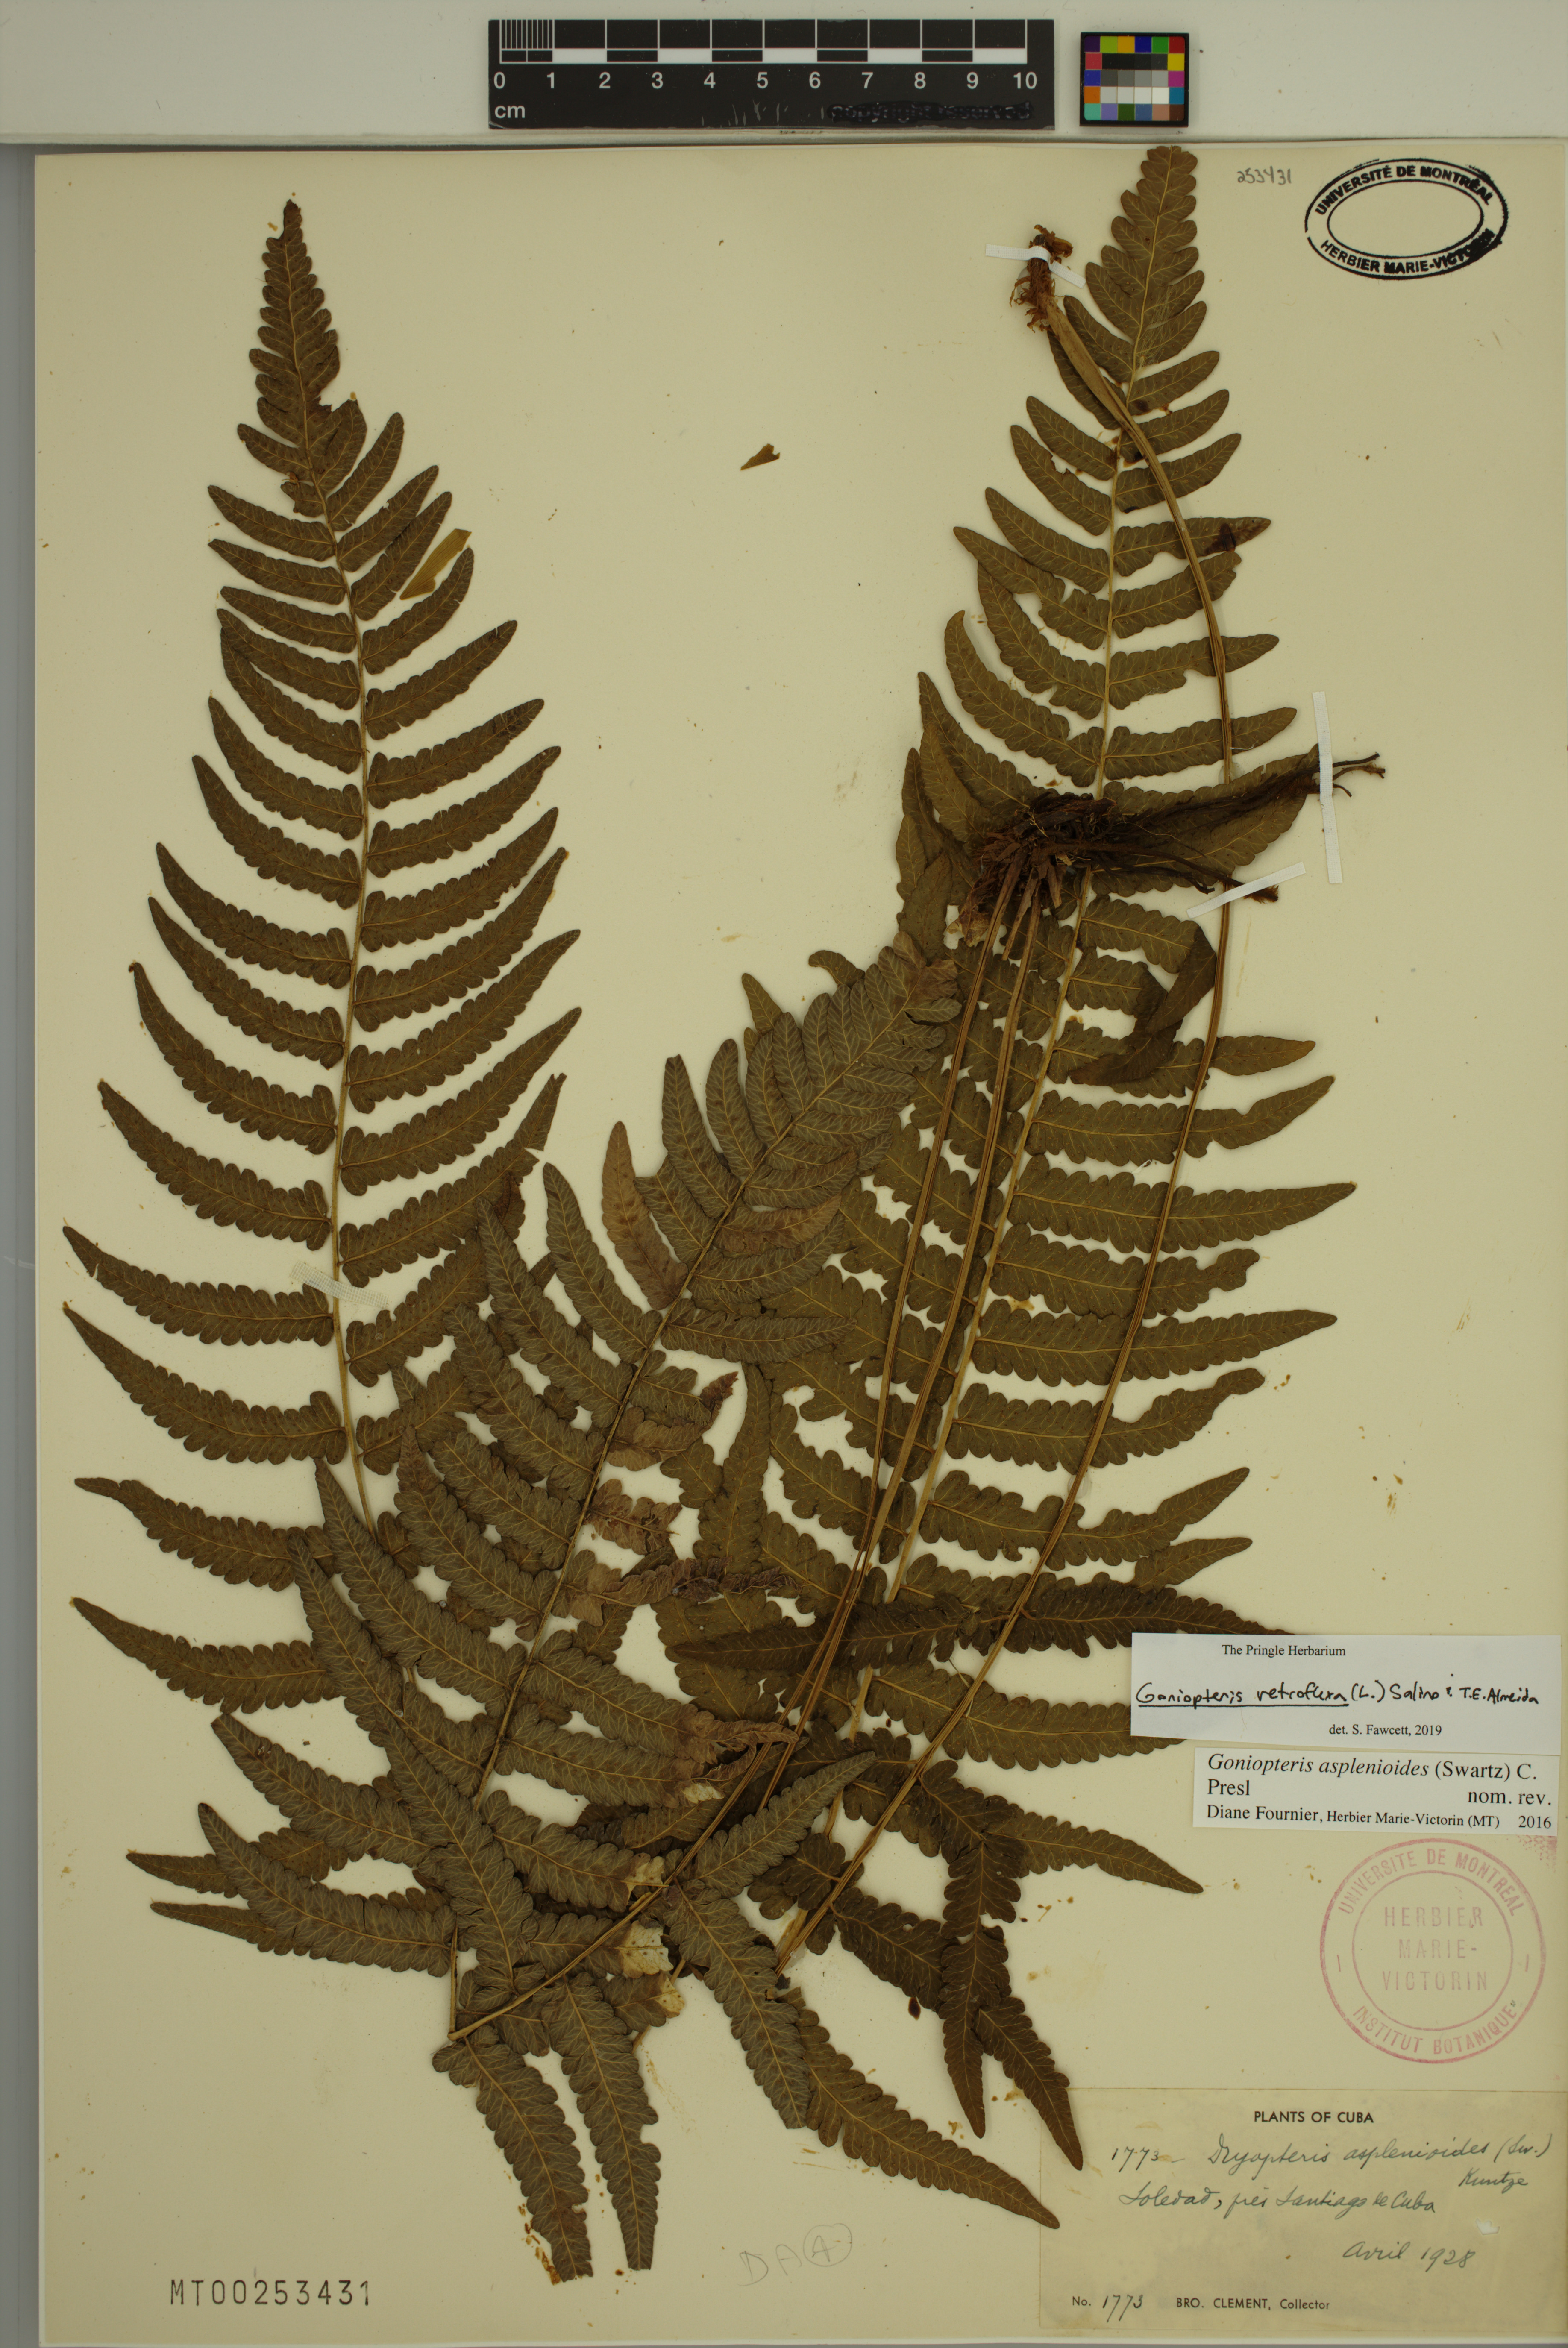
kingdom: Plantae
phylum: Tracheophyta
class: Polypodiopsida
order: Polypodiales
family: Thelypteridaceae
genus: Goniopteris
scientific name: Goniopteris retroflexa
